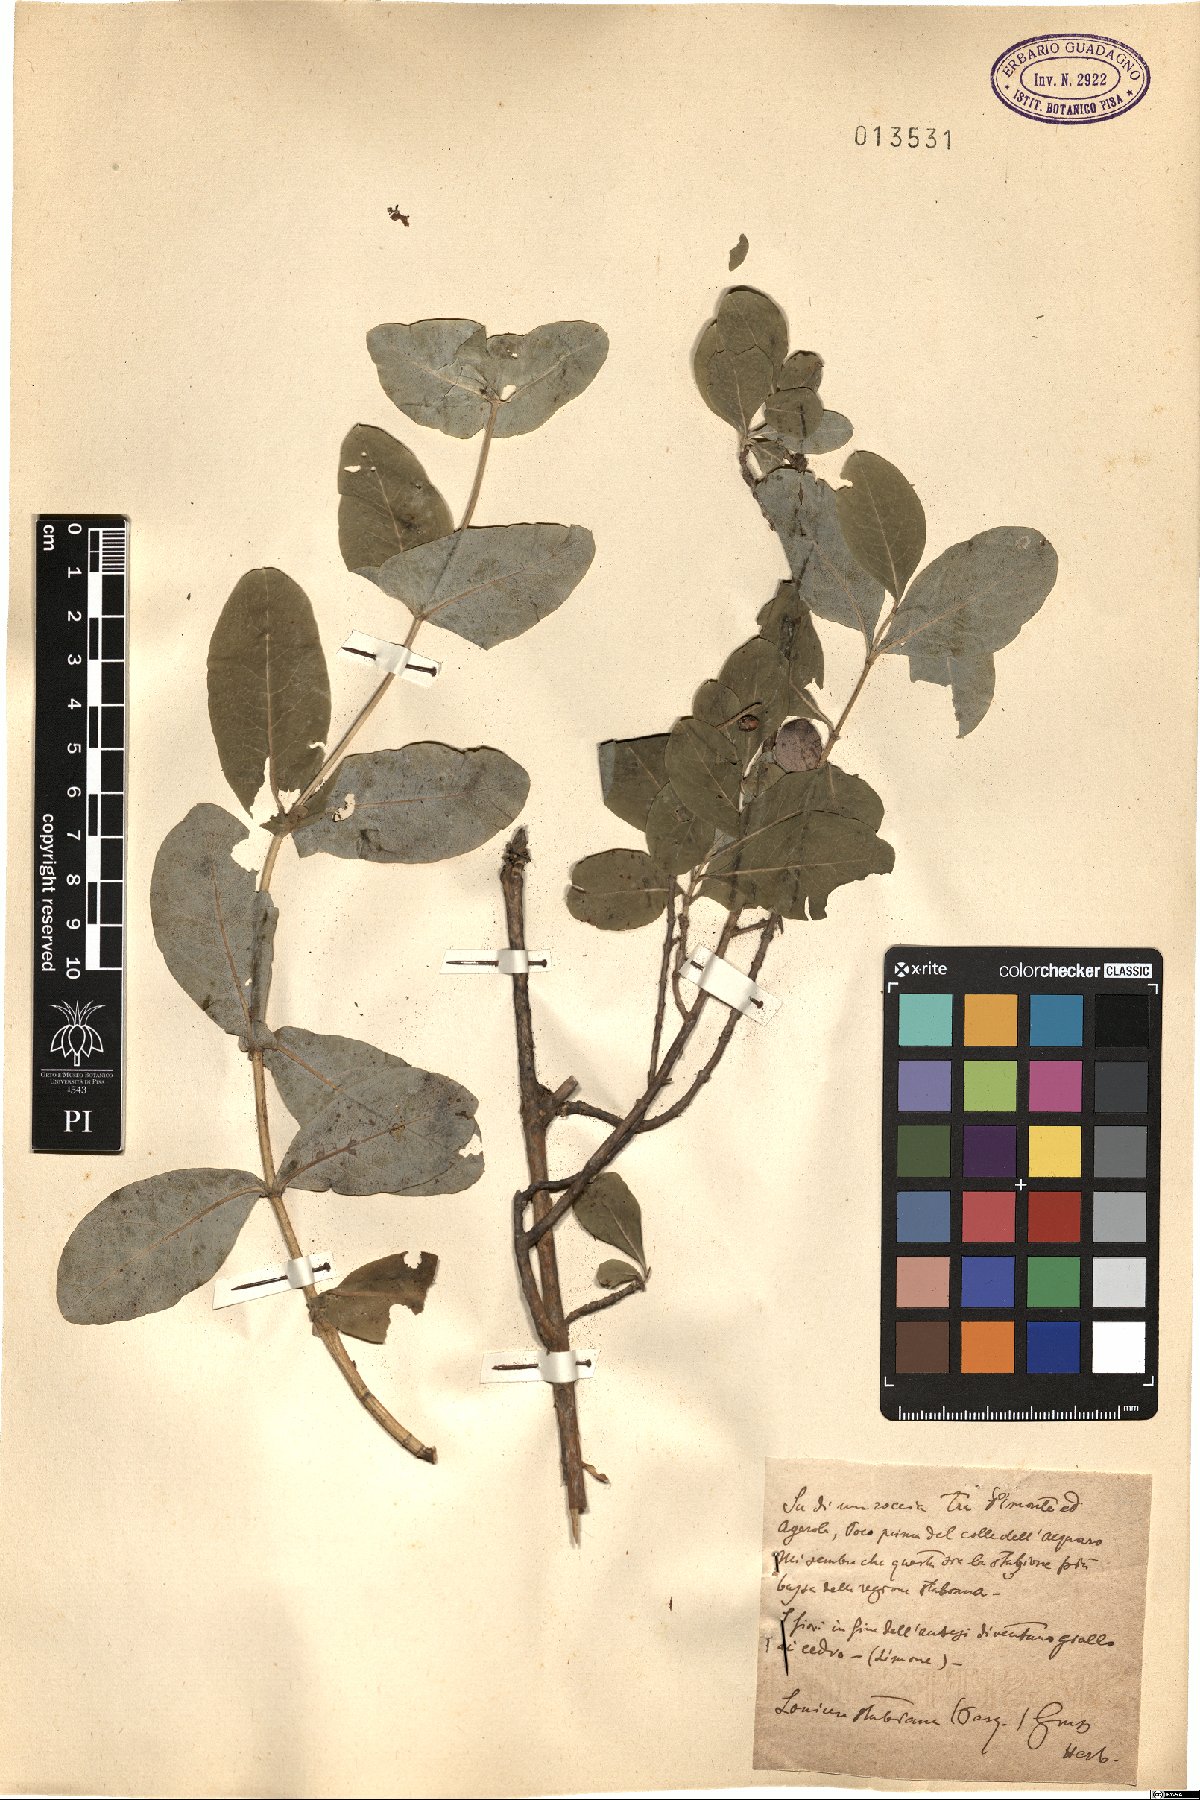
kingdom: Plantae
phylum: Tracheophyta
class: Magnoliopsida
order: Dipsacales
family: Caprifoliaceae
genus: Lonicera
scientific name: Lonicera stabiana
